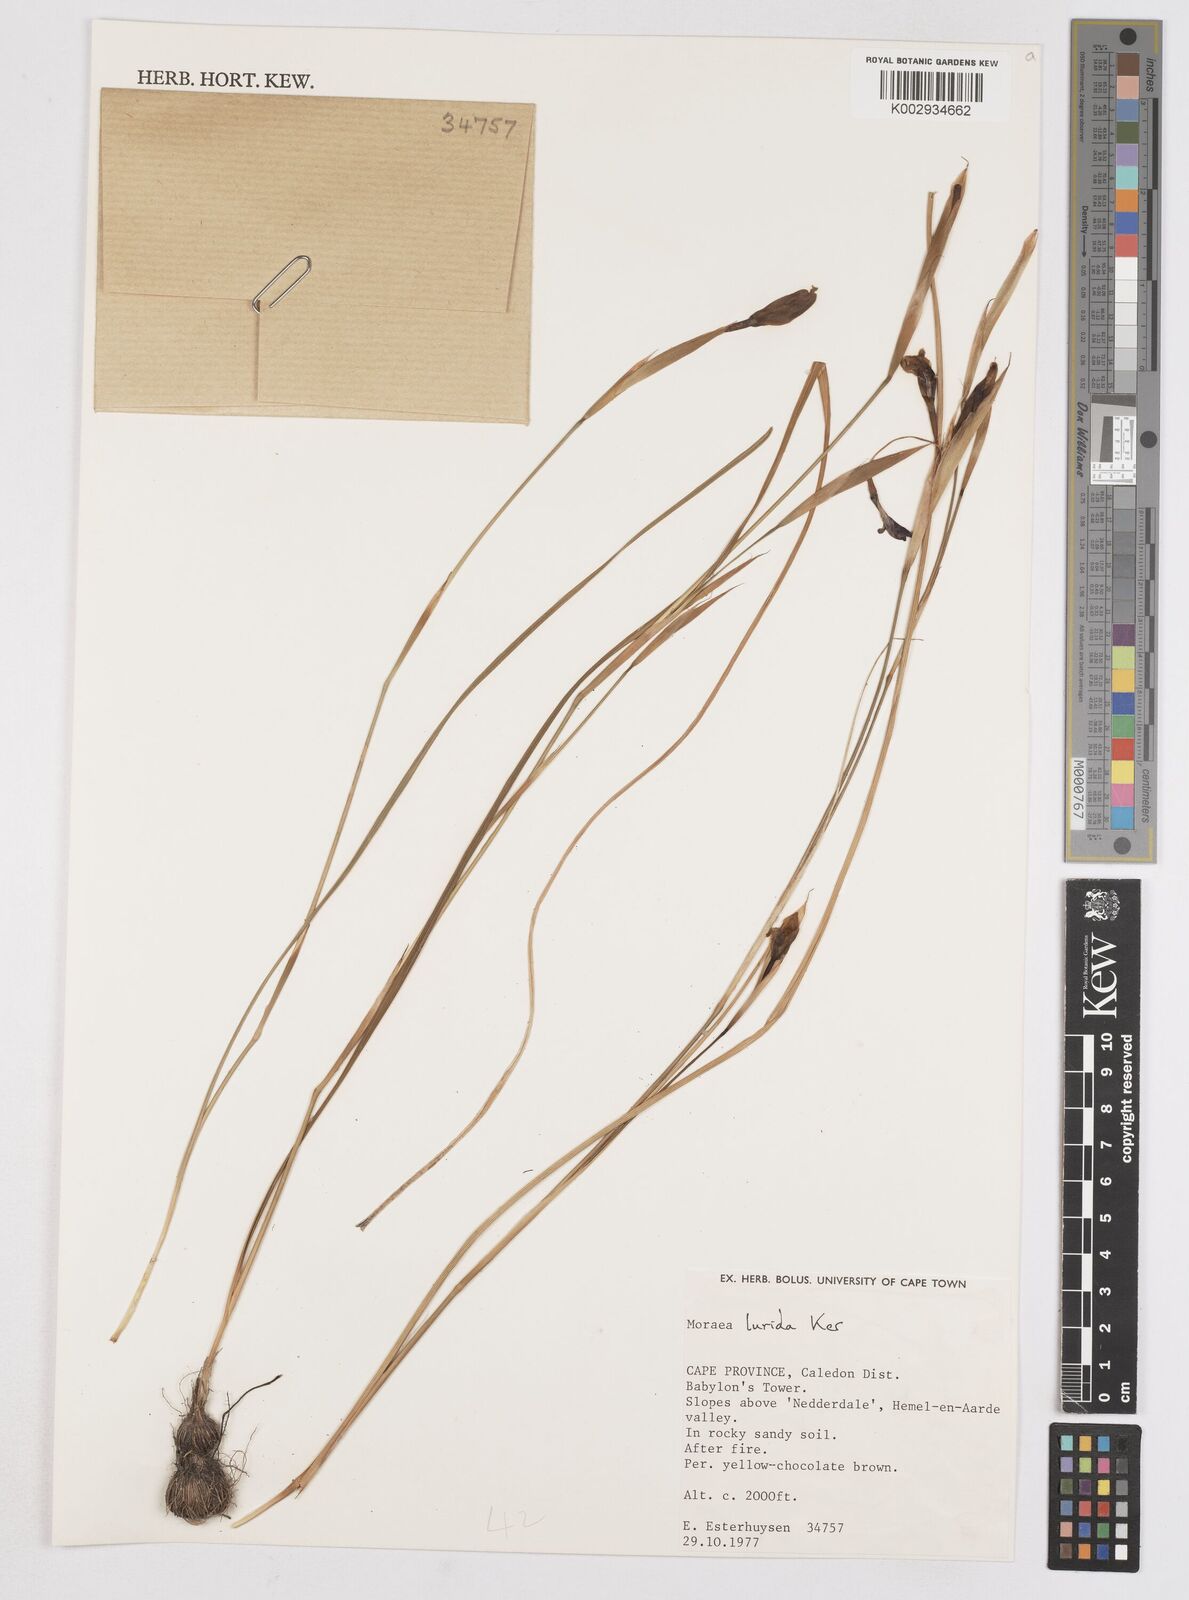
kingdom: Plantae
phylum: Tracheophyta
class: Liliopsida
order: Asparagales
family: Iridaceae
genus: Moraea
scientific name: Moraea lurida
